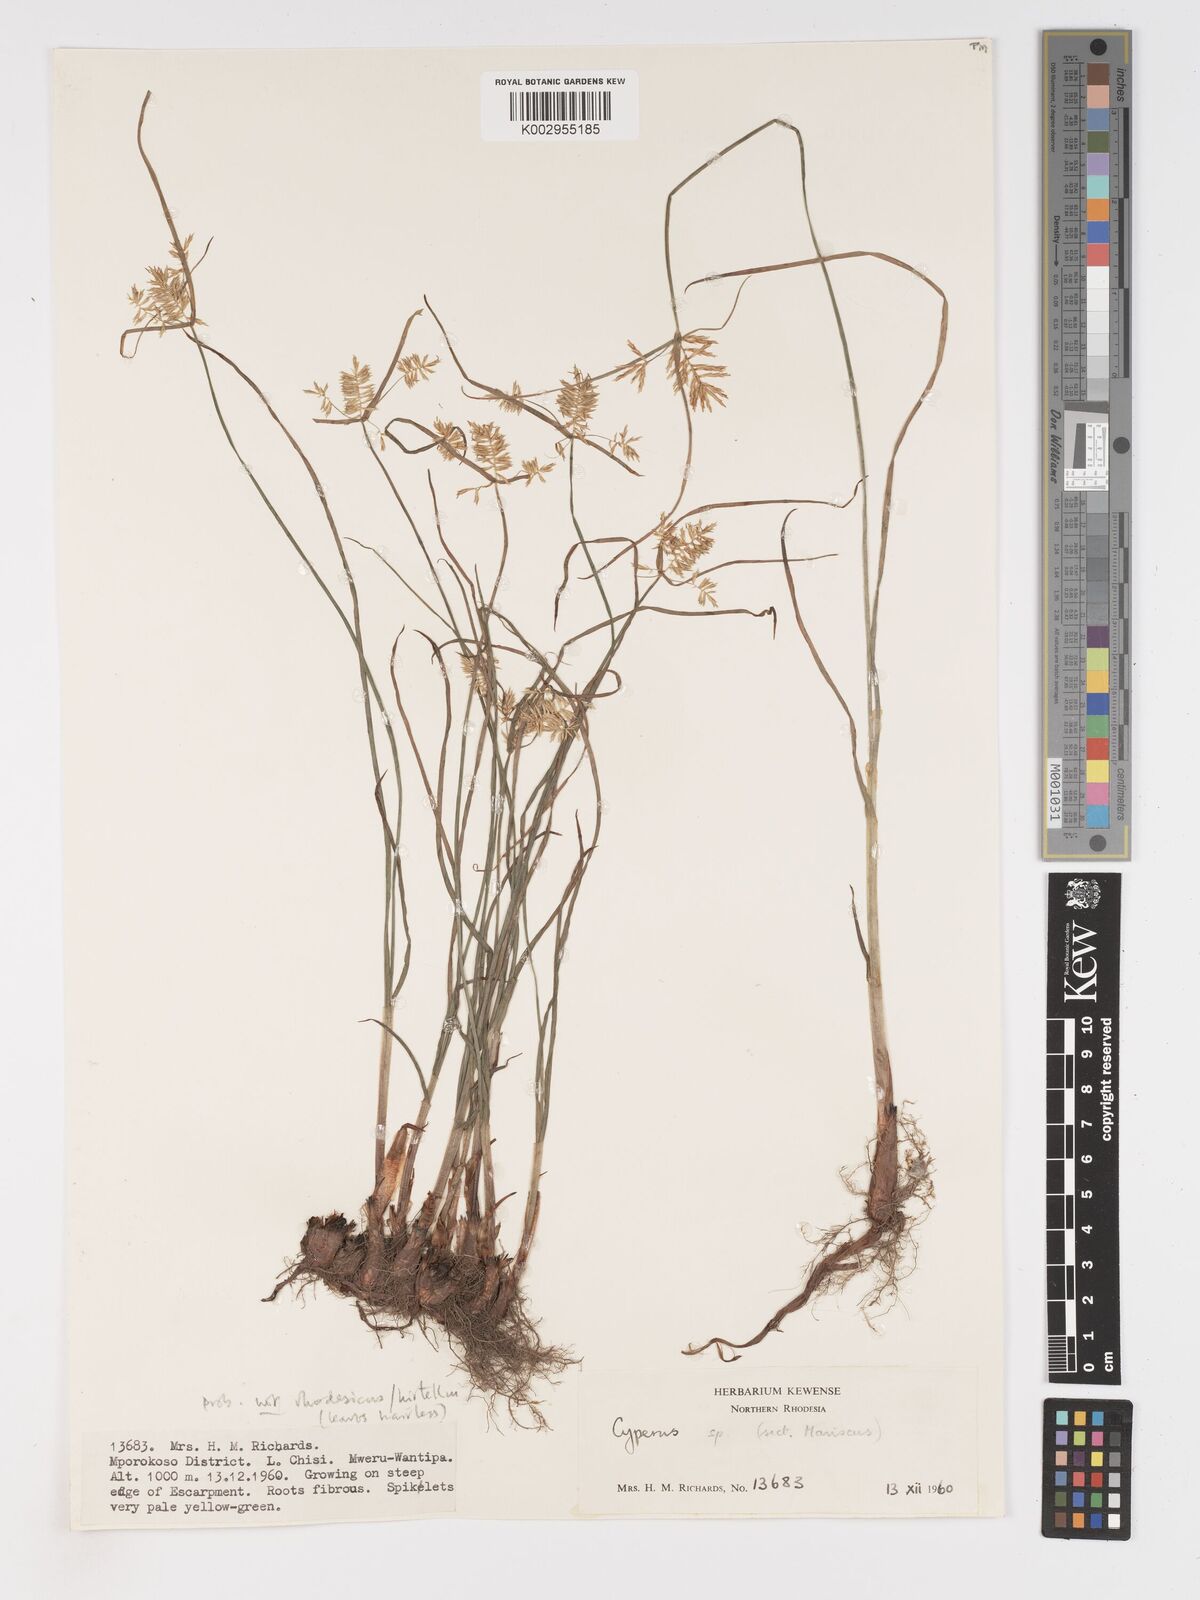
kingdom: Plantae
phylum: Tracheophyta
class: Liliopsida
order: Poales
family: Cyperaceae
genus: Cyperus
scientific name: Cyperus hirtellus
